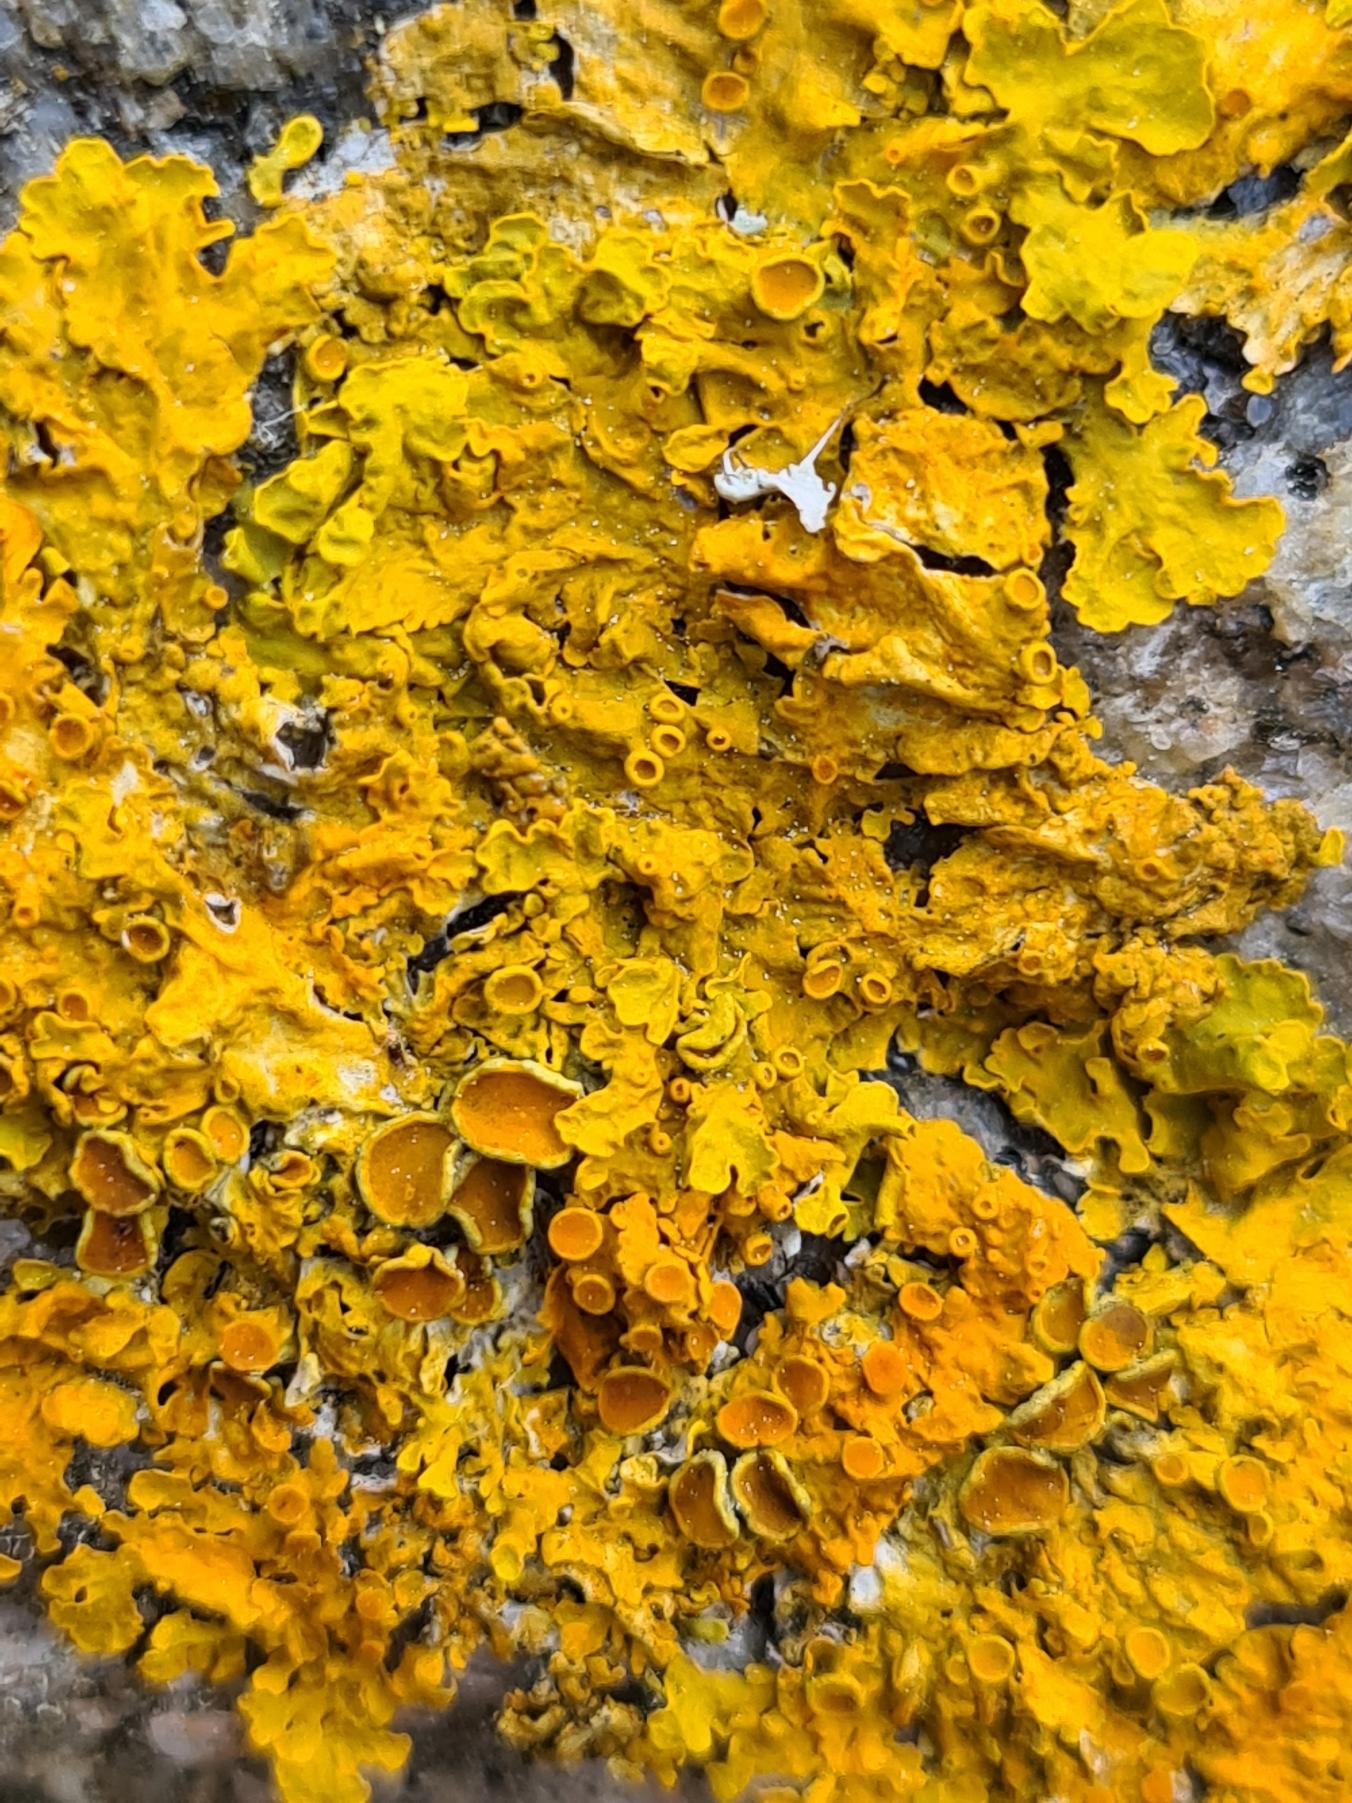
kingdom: Fungi
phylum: Ascomycota
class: Lecanoromycetes
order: Teloschistales
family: Teloschistaceae
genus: Xanthoria
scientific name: Xanthoria parietina
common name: Almindelig væggelav
